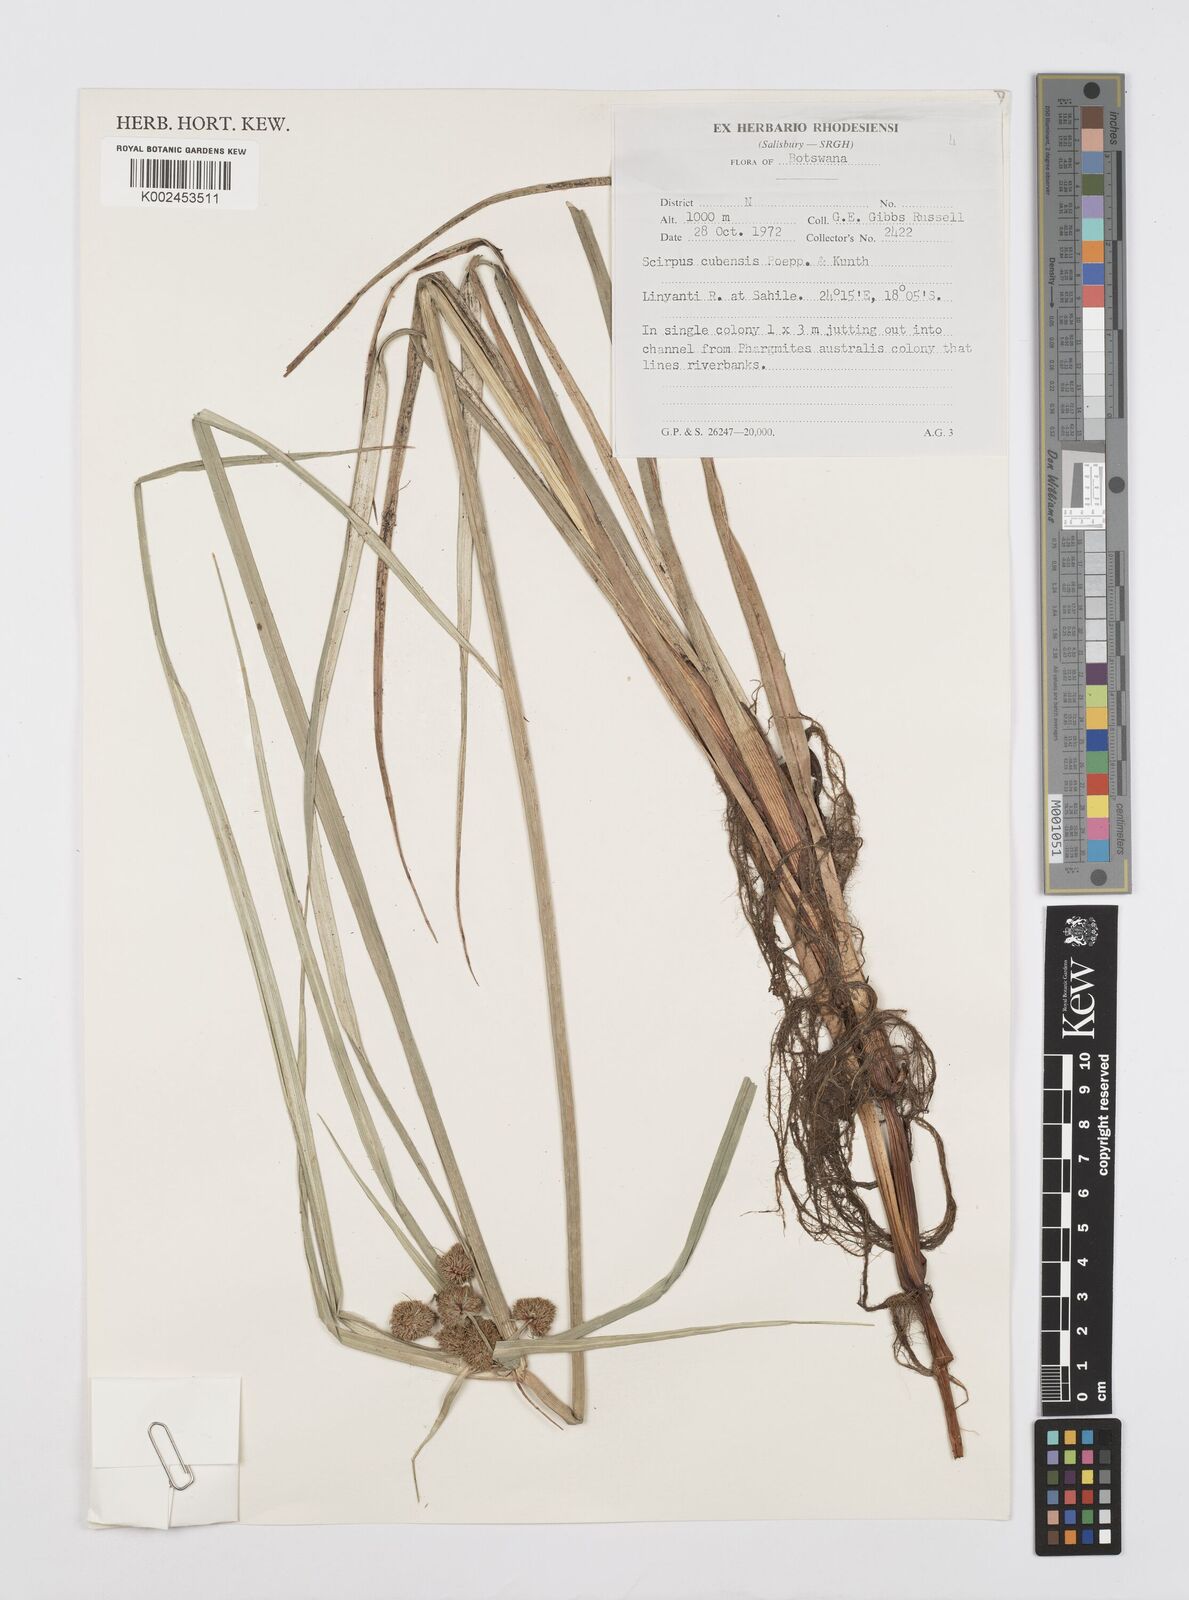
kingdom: Plantae
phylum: Tracheophyta
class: Liliopsida
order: Poales
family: Cyperaceae
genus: Cyperus
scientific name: Cyperus elegans
